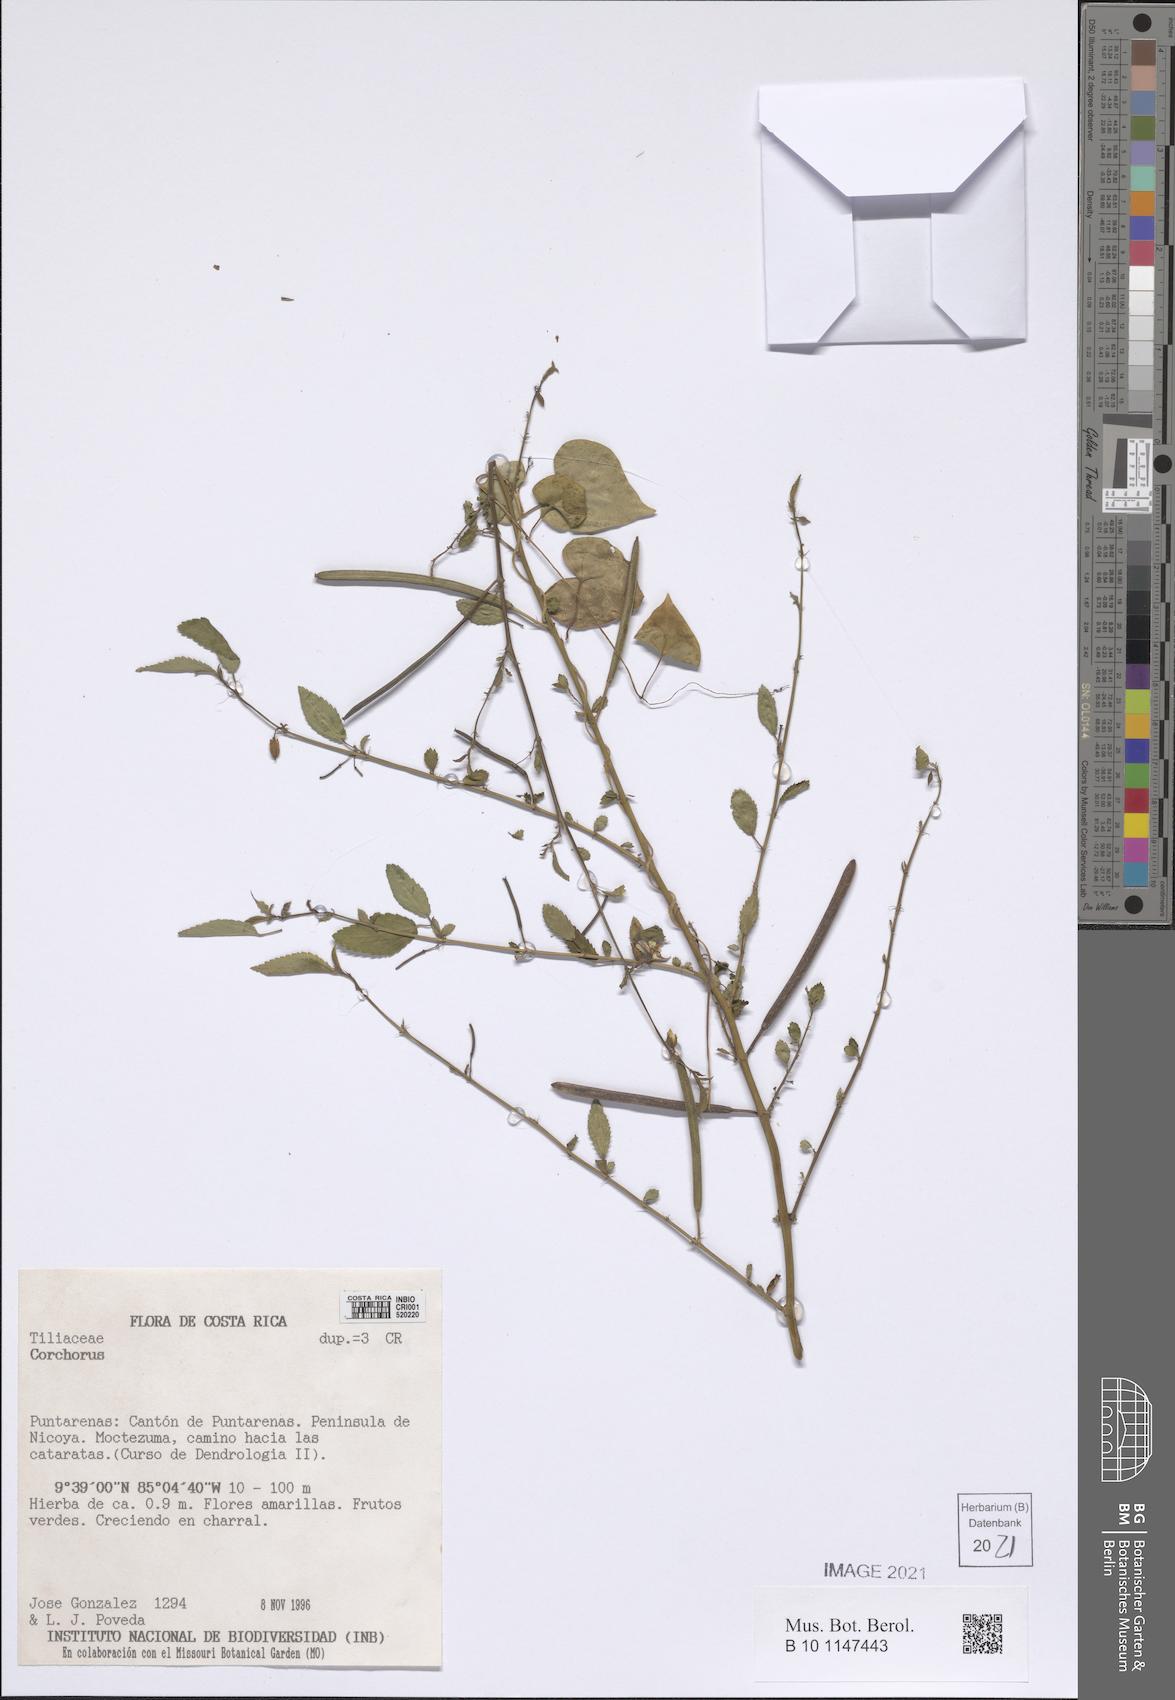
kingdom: Plantae
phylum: Tracheophyta
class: Magnoliopsida
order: Malvales
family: Malvaceae
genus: Corchorus
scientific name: Corchorus
